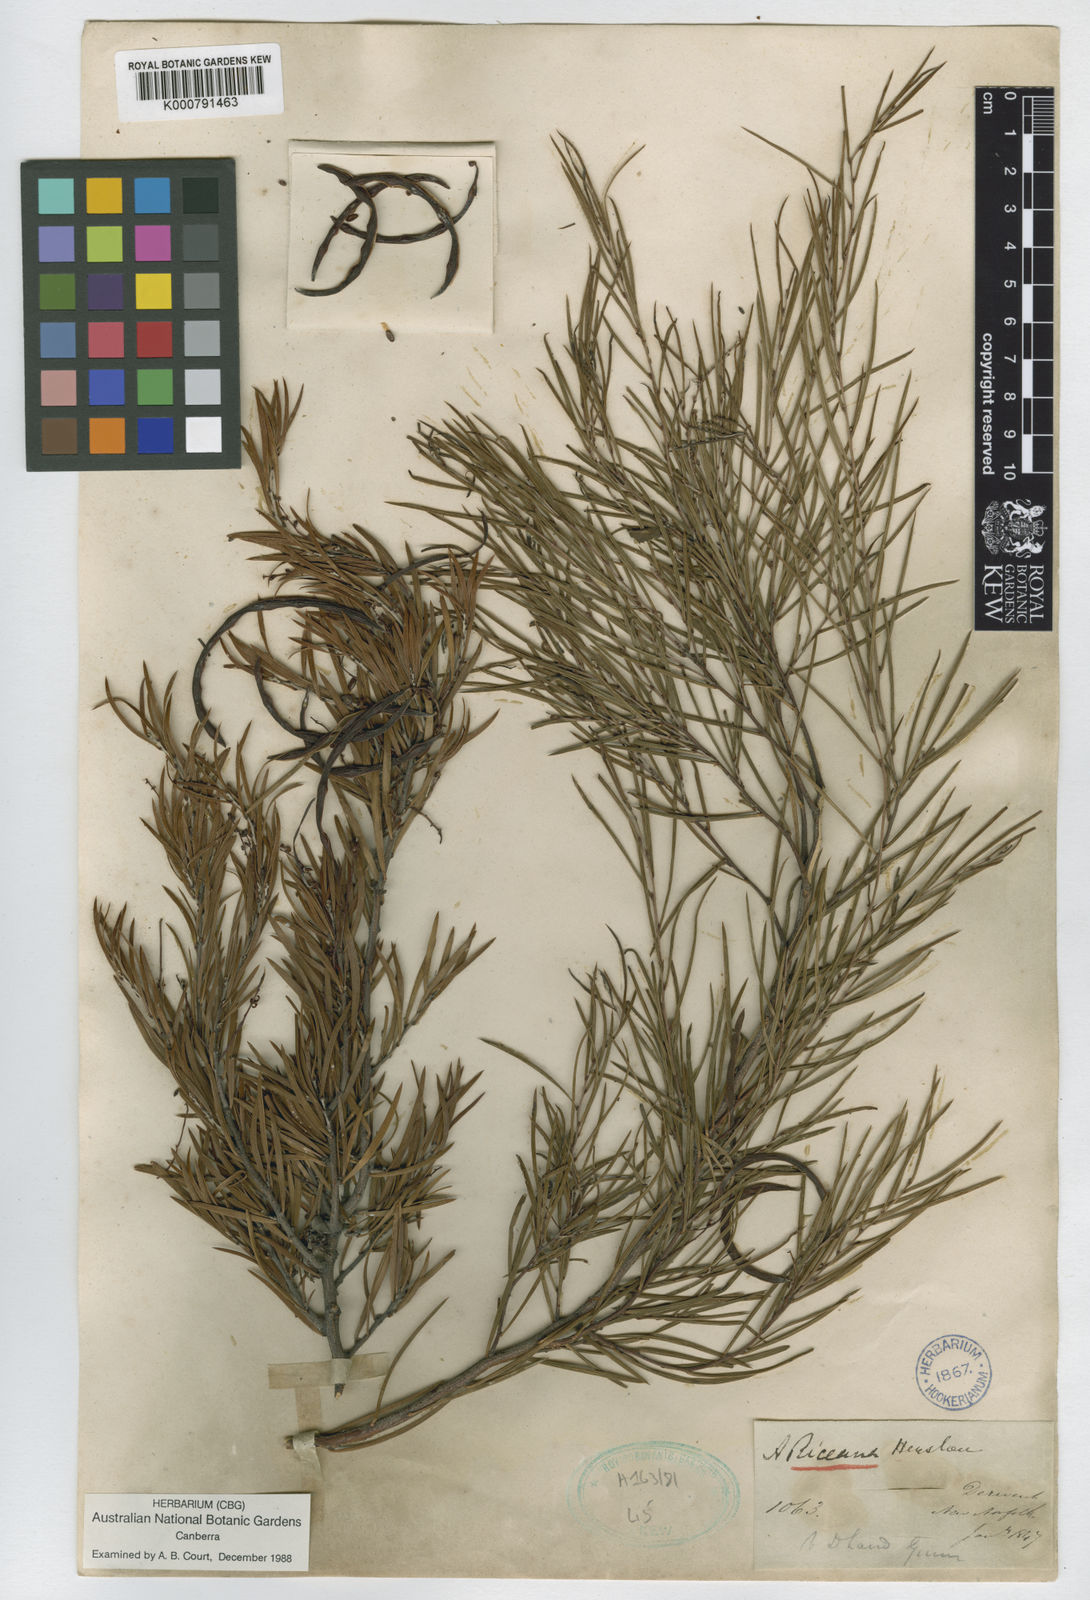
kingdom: Plantae
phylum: Tracheophyta
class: Magnoliopsida
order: Fabales
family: Fabaceae
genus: Acacia
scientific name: Acacia riceana
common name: Rice's wattle
